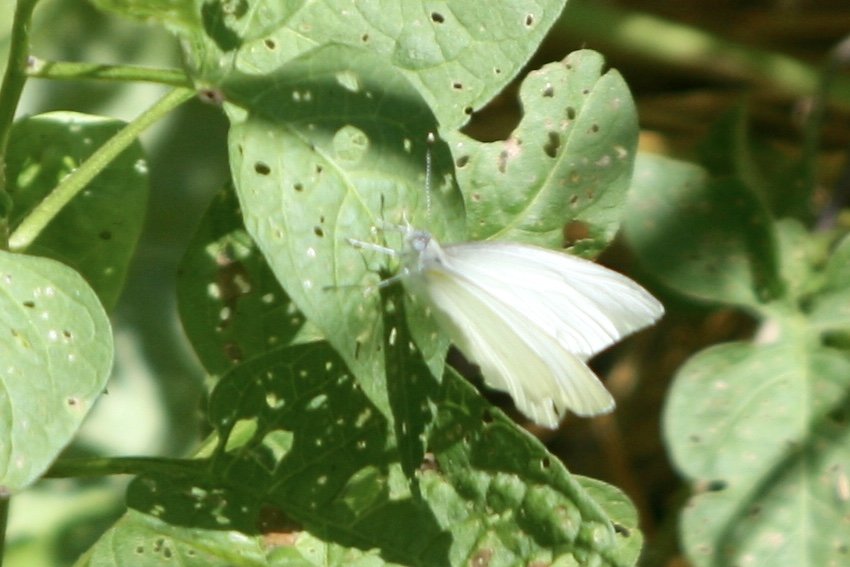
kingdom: Animalia
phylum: Arthropoda
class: Insecta
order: Lepidoptera
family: Pieridae
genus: Pieris
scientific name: Pieris oleracea
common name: Mustard White
